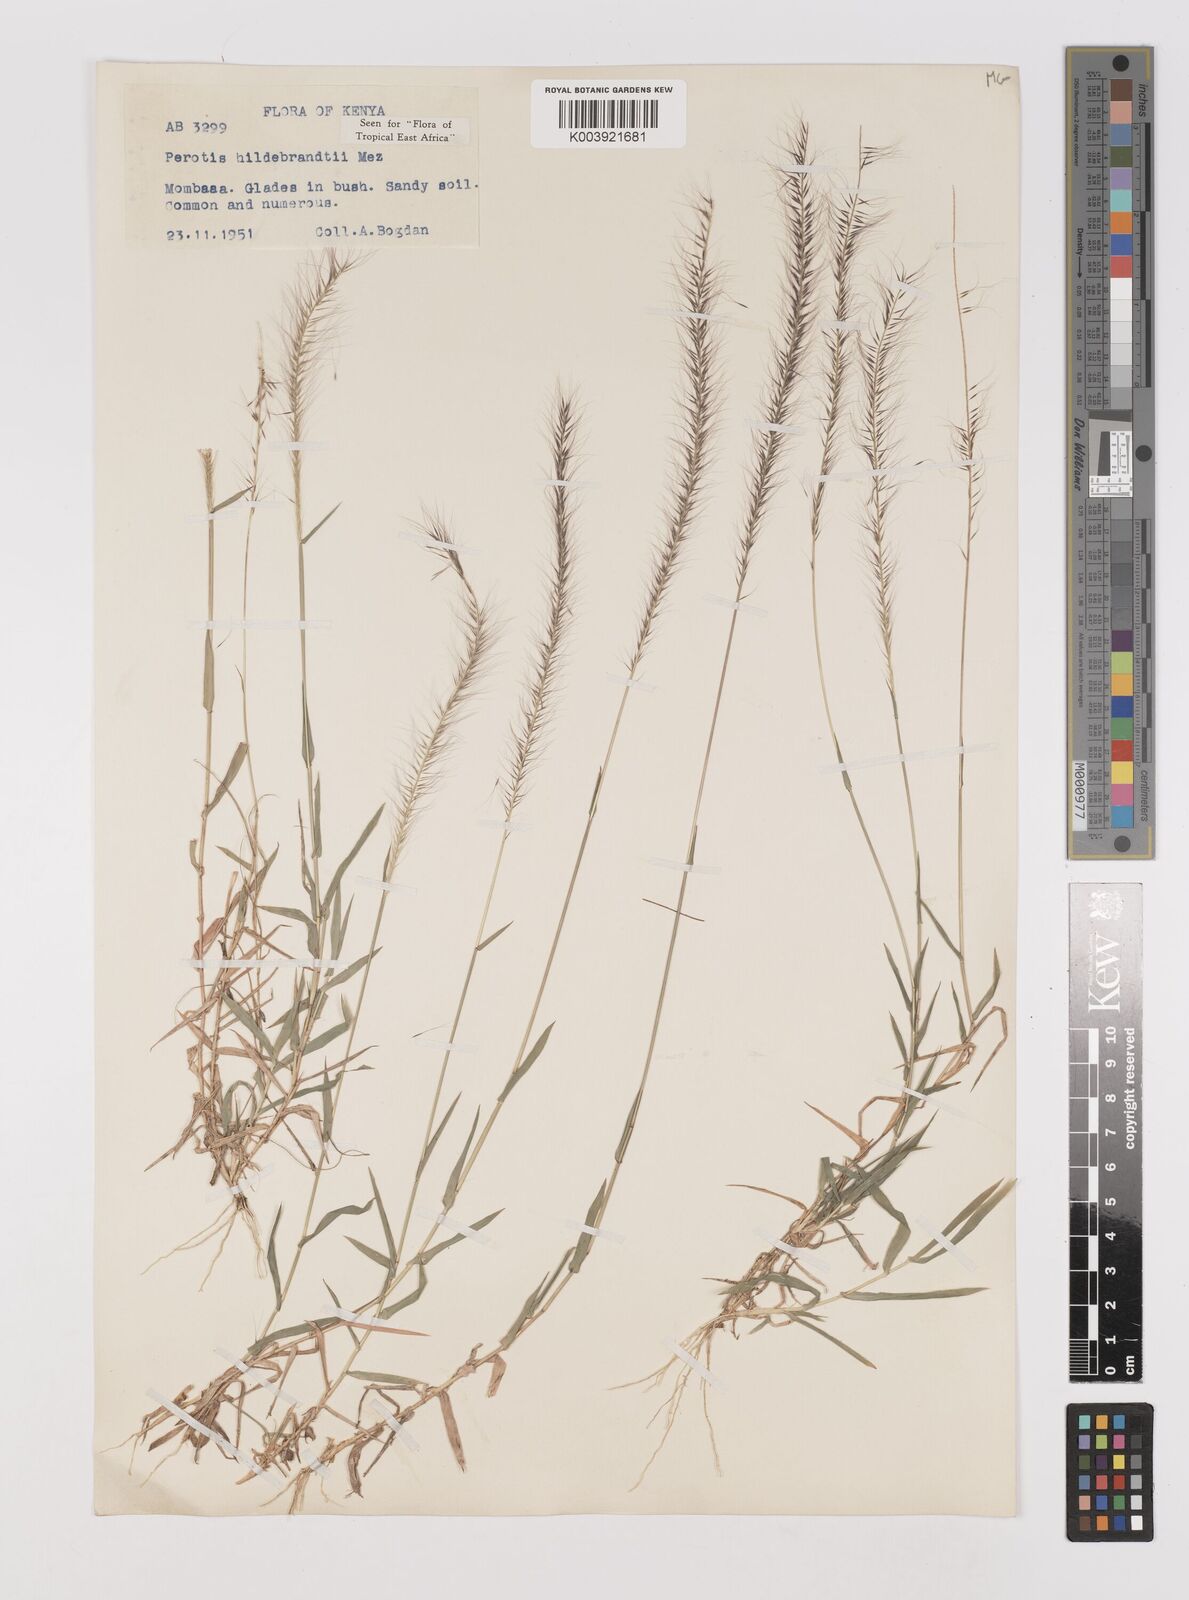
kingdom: Plantae
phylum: Tracheophyta
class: Liliopsida
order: Poales
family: Poaceae
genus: Perotis
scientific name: Perotis hildebrandtii
